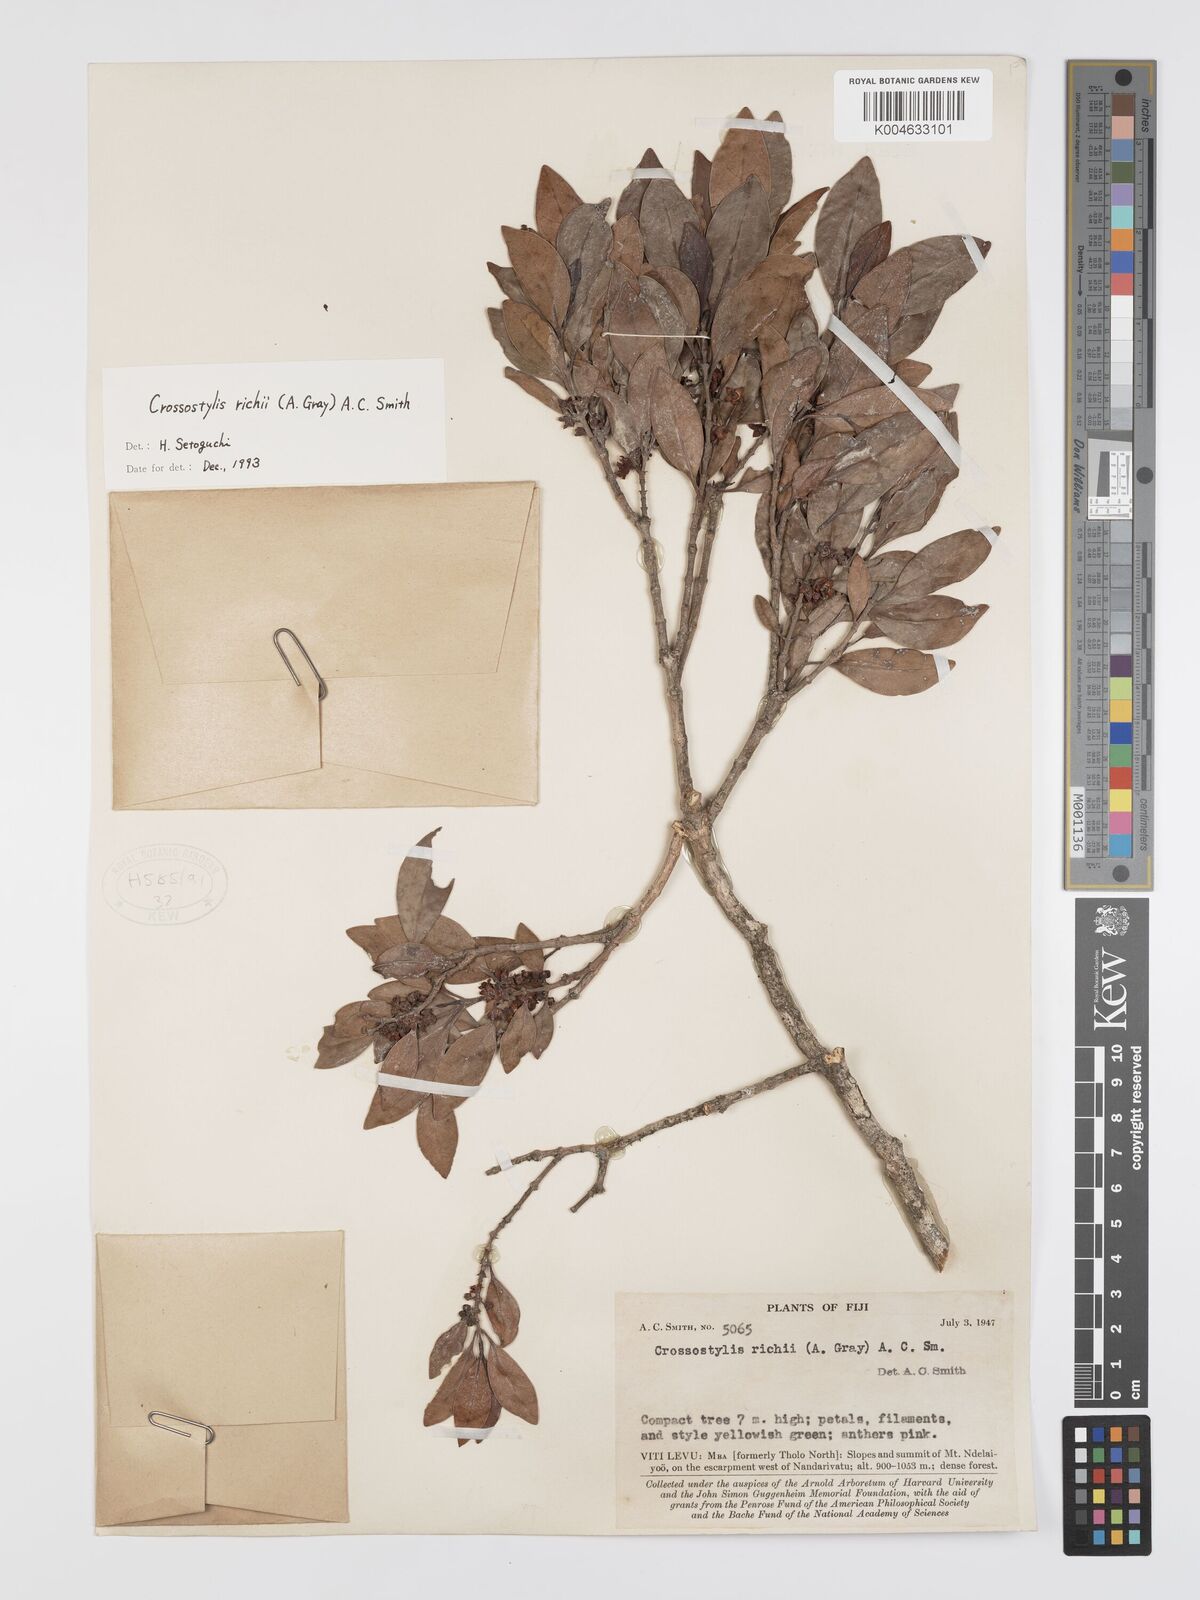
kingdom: Plantae
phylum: Tracheophyta
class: Magnoliopsida
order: Malpighiales
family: Rhizophoraceae
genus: Crossostylis
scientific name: Crossostylis richii
